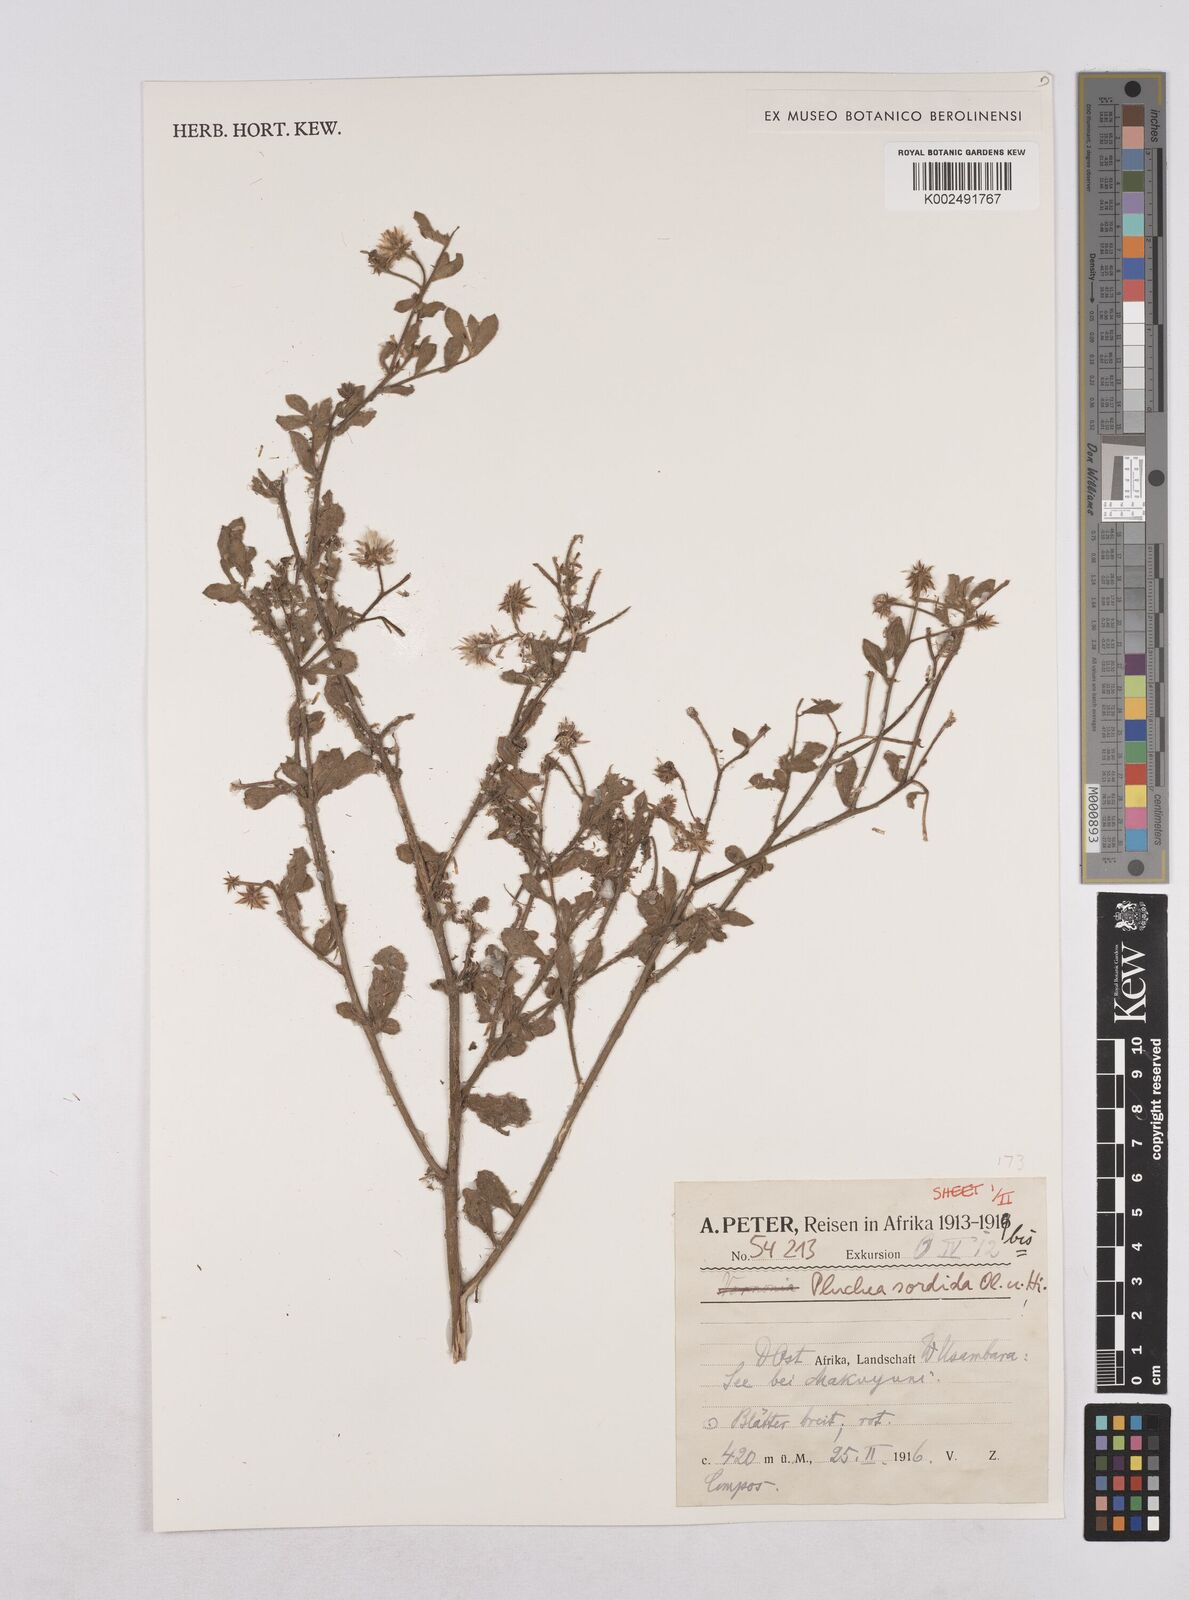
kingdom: Plantae
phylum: Tracheophyta
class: Magnoliopsida
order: Asterales
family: Asteraceae
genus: Pluchea
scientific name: Pluchea sordida
